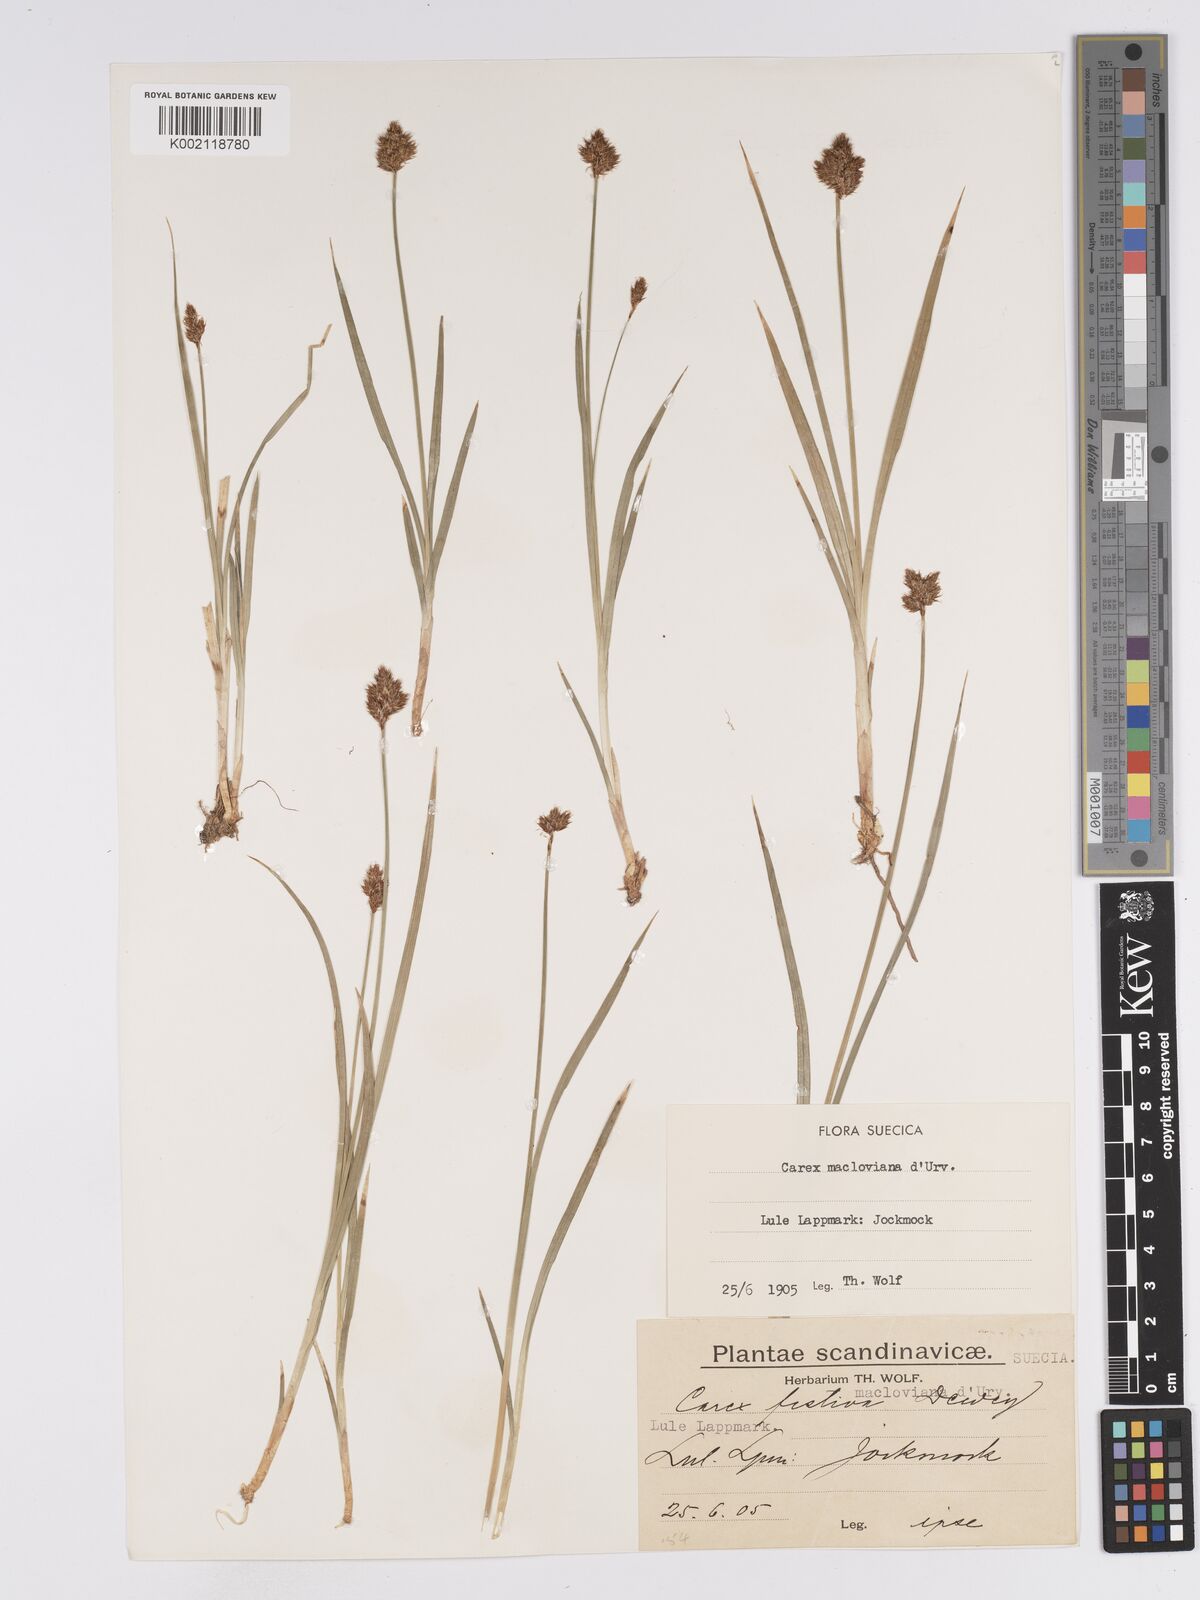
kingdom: Plantae
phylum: Tracheophyta
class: Liliopsida
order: Poales
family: Cyperaceae
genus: Carex
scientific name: Carex macloviana
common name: Falkland island sedge
